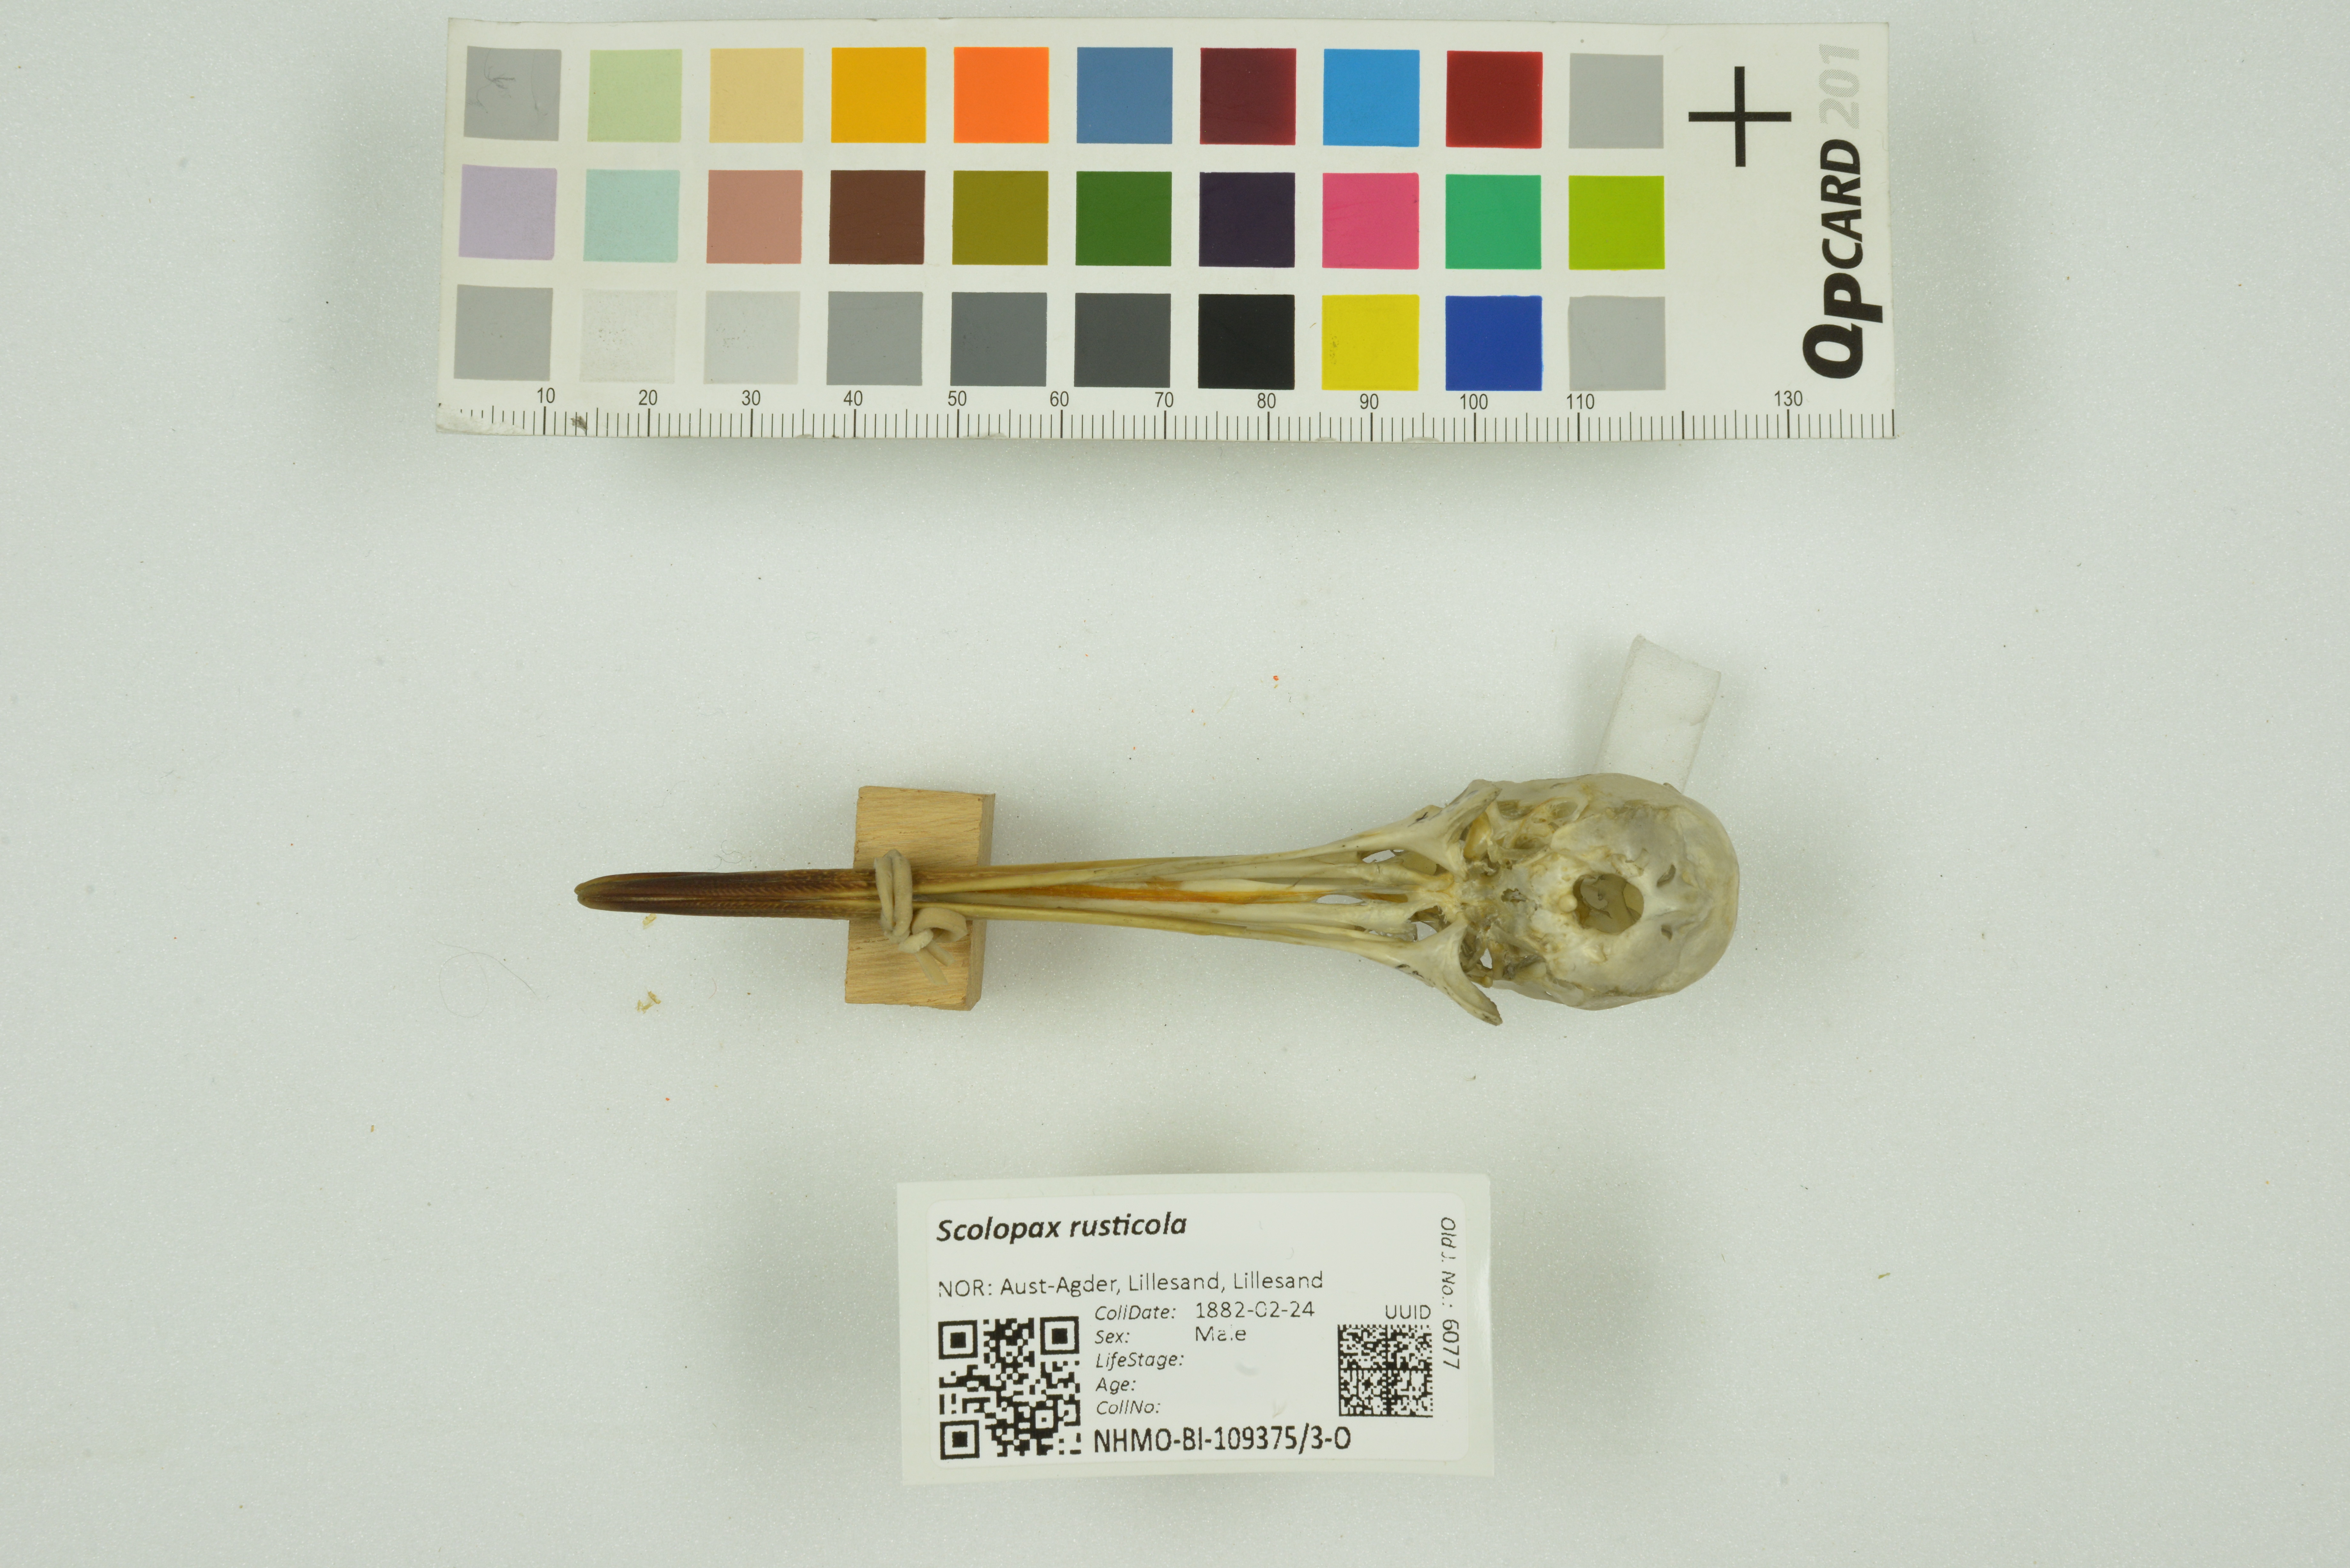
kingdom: Animalia
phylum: Chordata
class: Aves
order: Charadriiformes
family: Scolopacidae
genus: Scolopax
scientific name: Scolopax rusticola
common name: Eurasian woodcock
